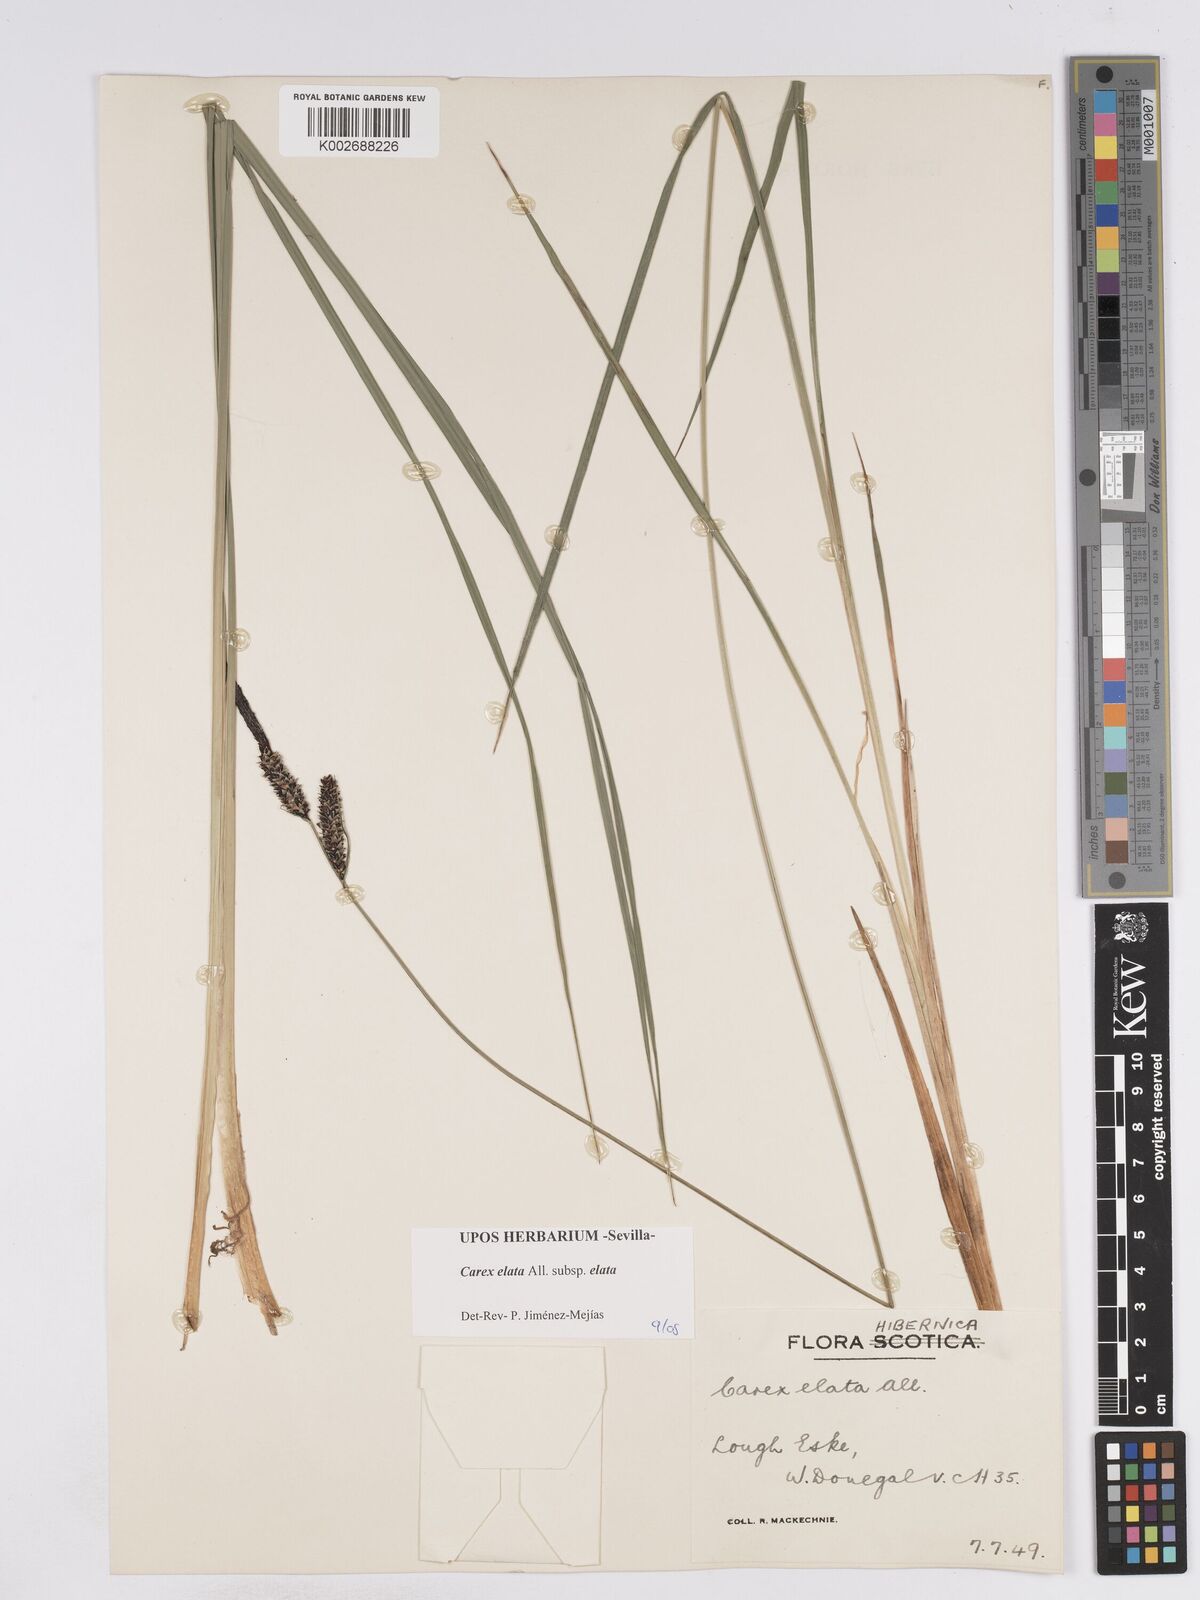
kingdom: Plantae
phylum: Tracheophyta
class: Liliopsida
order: Poales
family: Cyperaceae
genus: Carex
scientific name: Carex elata
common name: Tufted sedge
